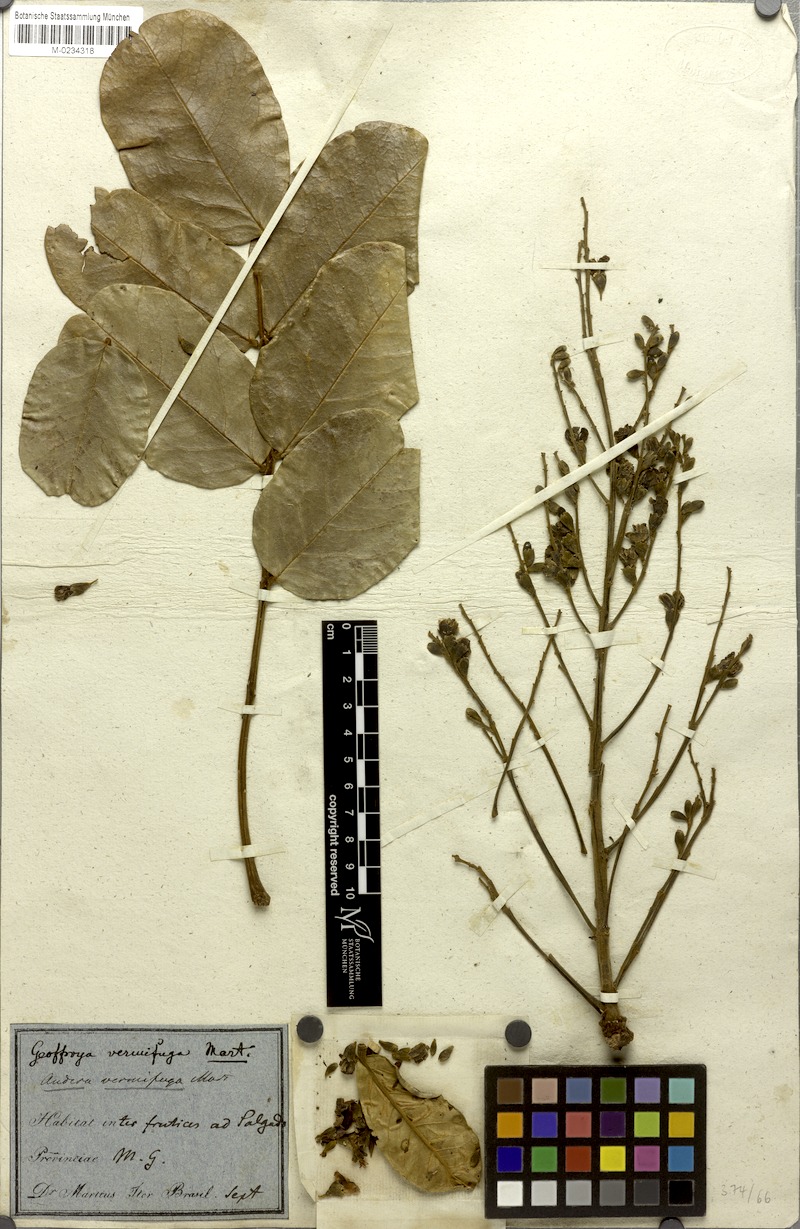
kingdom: Plantae
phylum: Tracheophyta
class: Magnoliopsida
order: Fabales
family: Fabaceae
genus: Andira
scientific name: Andira vermifuga
